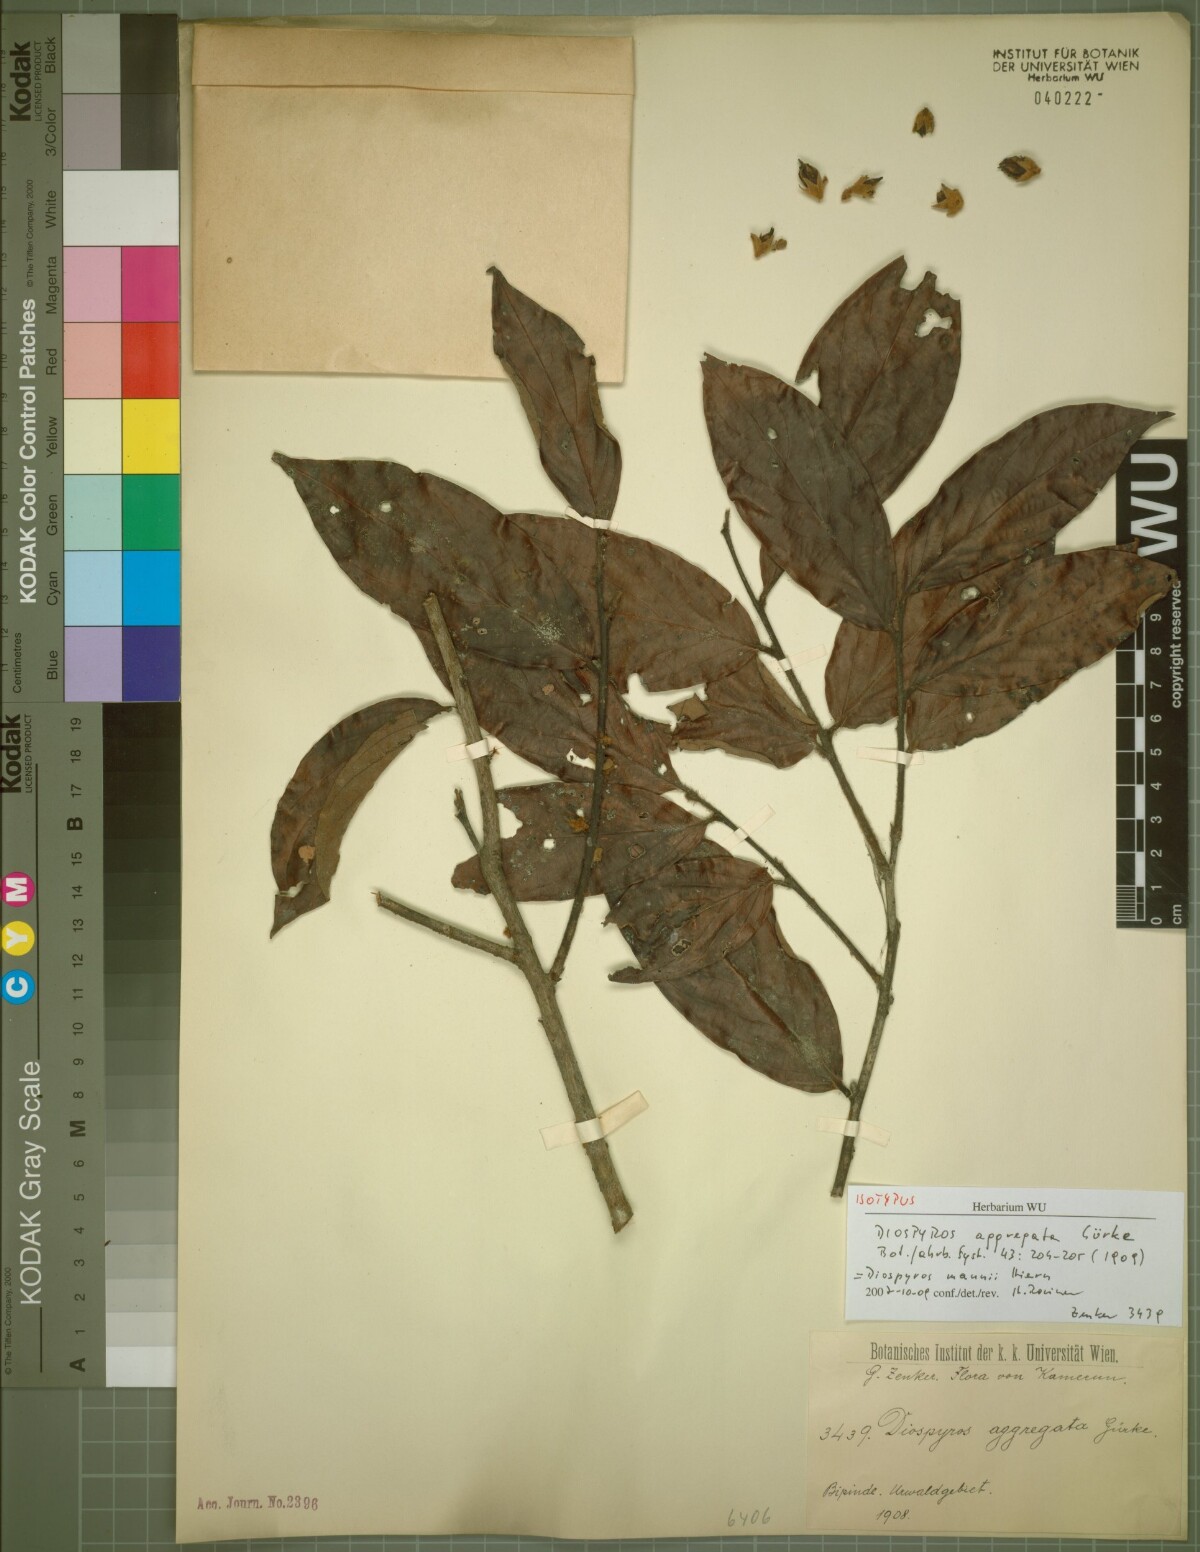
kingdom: Plantae
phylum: Tracheophyta
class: Magnoliopsida
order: Ericales
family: Ebenaceae
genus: Diospyros
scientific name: Diospyros mannii
